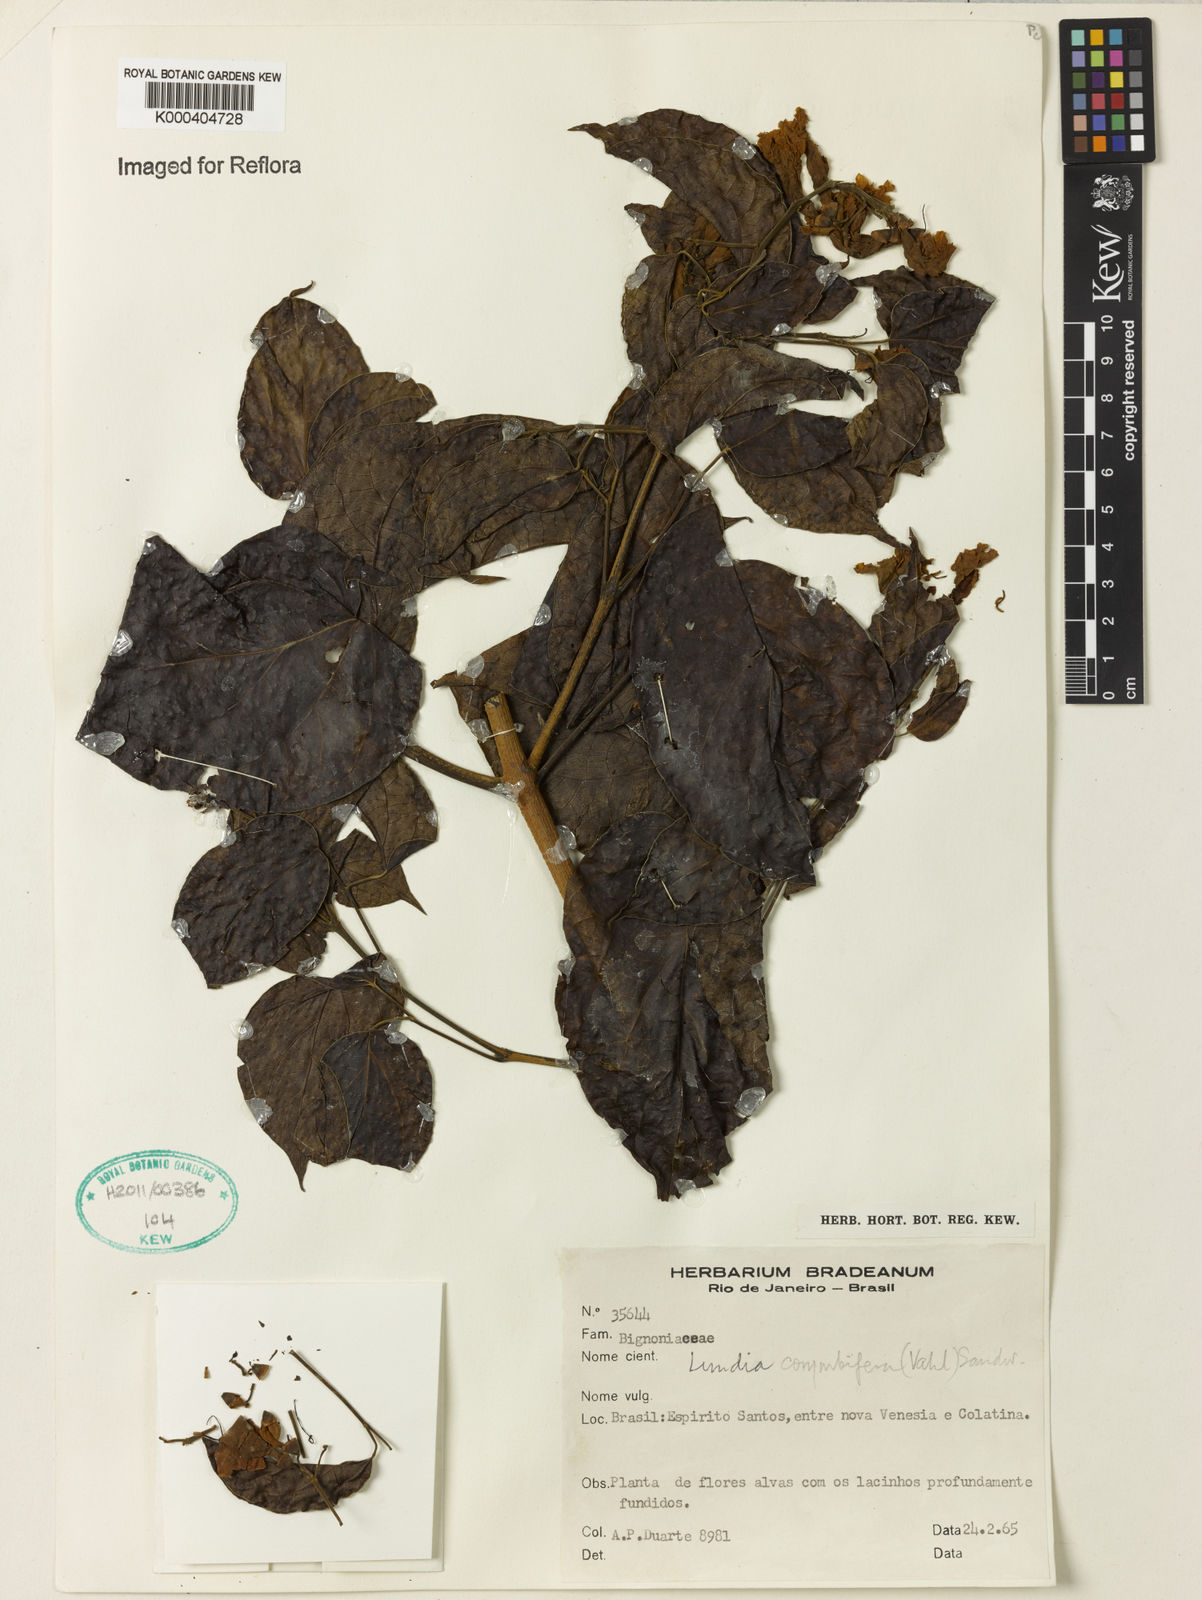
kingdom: Plantae
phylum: Tracheophyta
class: Magnoliopsida
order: Lamiales
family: Bignoniaceae
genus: Lundia
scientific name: Lundia corymbifera
